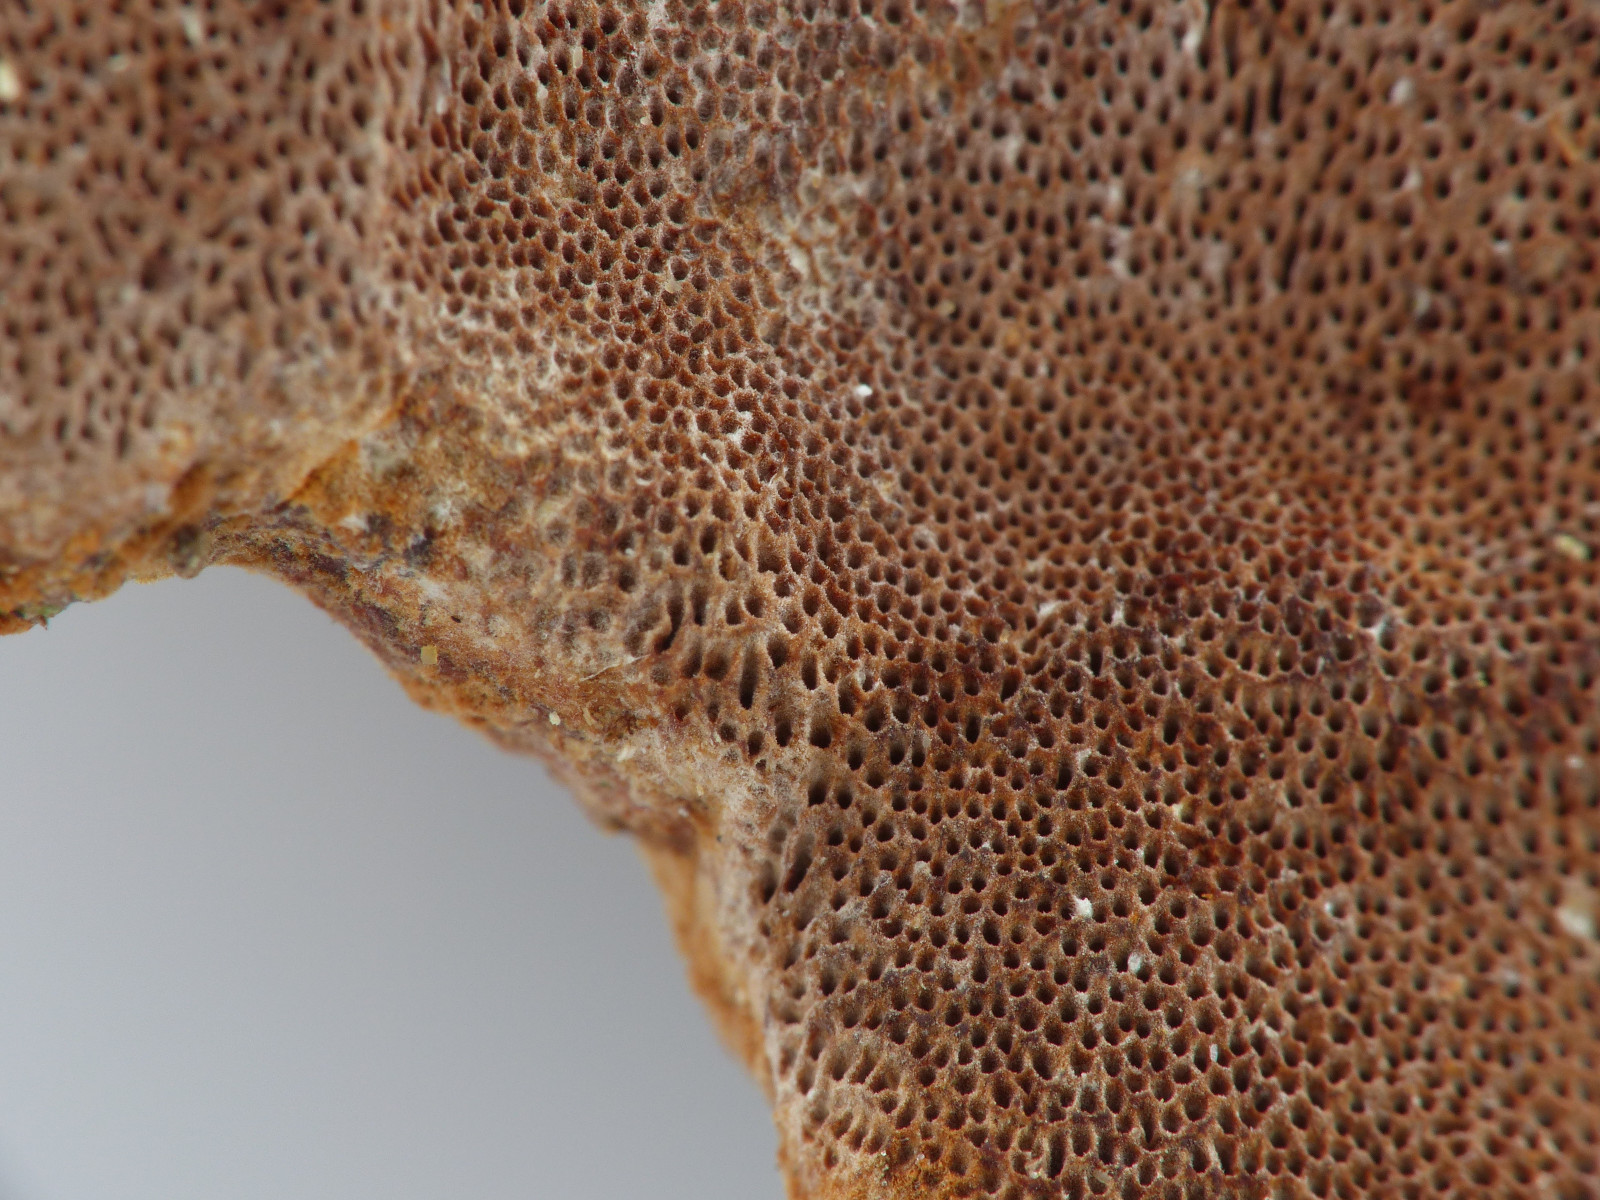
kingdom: Fungi
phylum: Basidiomycota
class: Agaricomycetes
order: Hymenochaetales
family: Hymenochaetaceae
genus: Fuscoporia
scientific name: Fuscoporia ferrea
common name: skorpe-ildporesvamp
